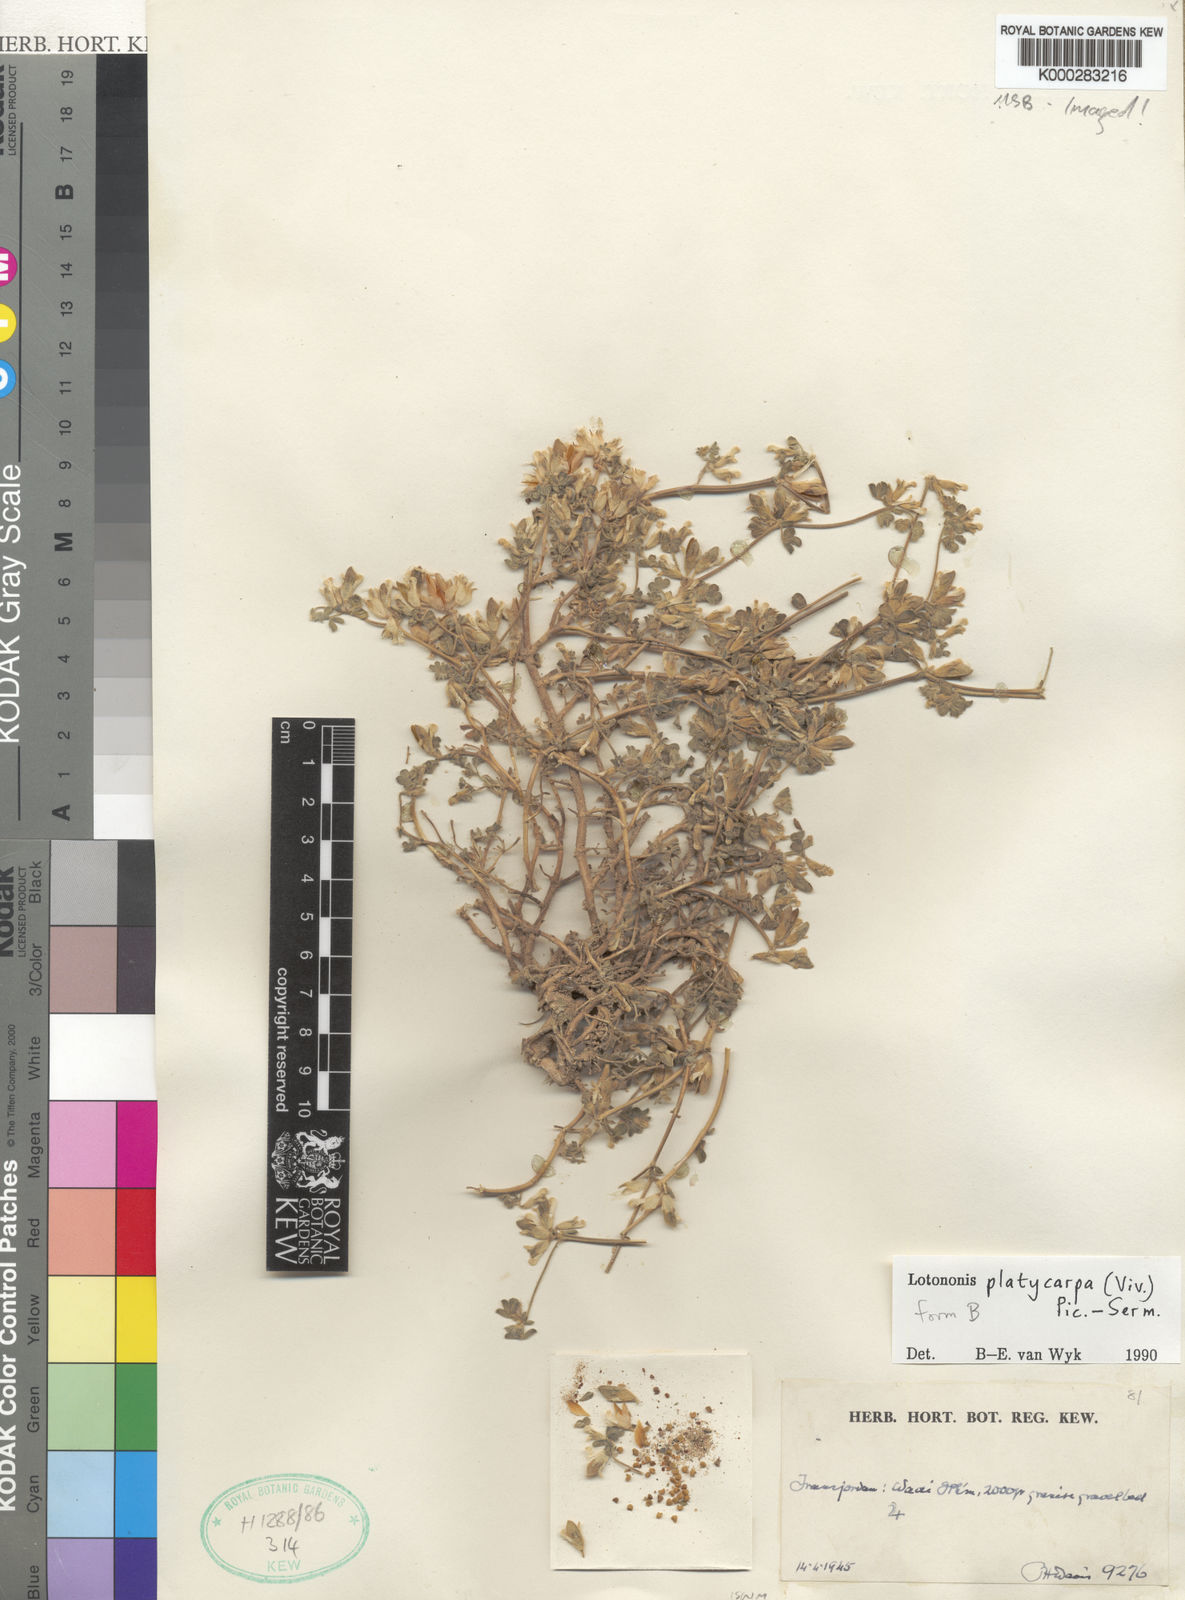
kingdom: Plantae
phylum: Tracheophyta
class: Magnoliopsida
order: Fabales
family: Fabaceae
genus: Leobordea
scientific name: Leobordea platycarpa
